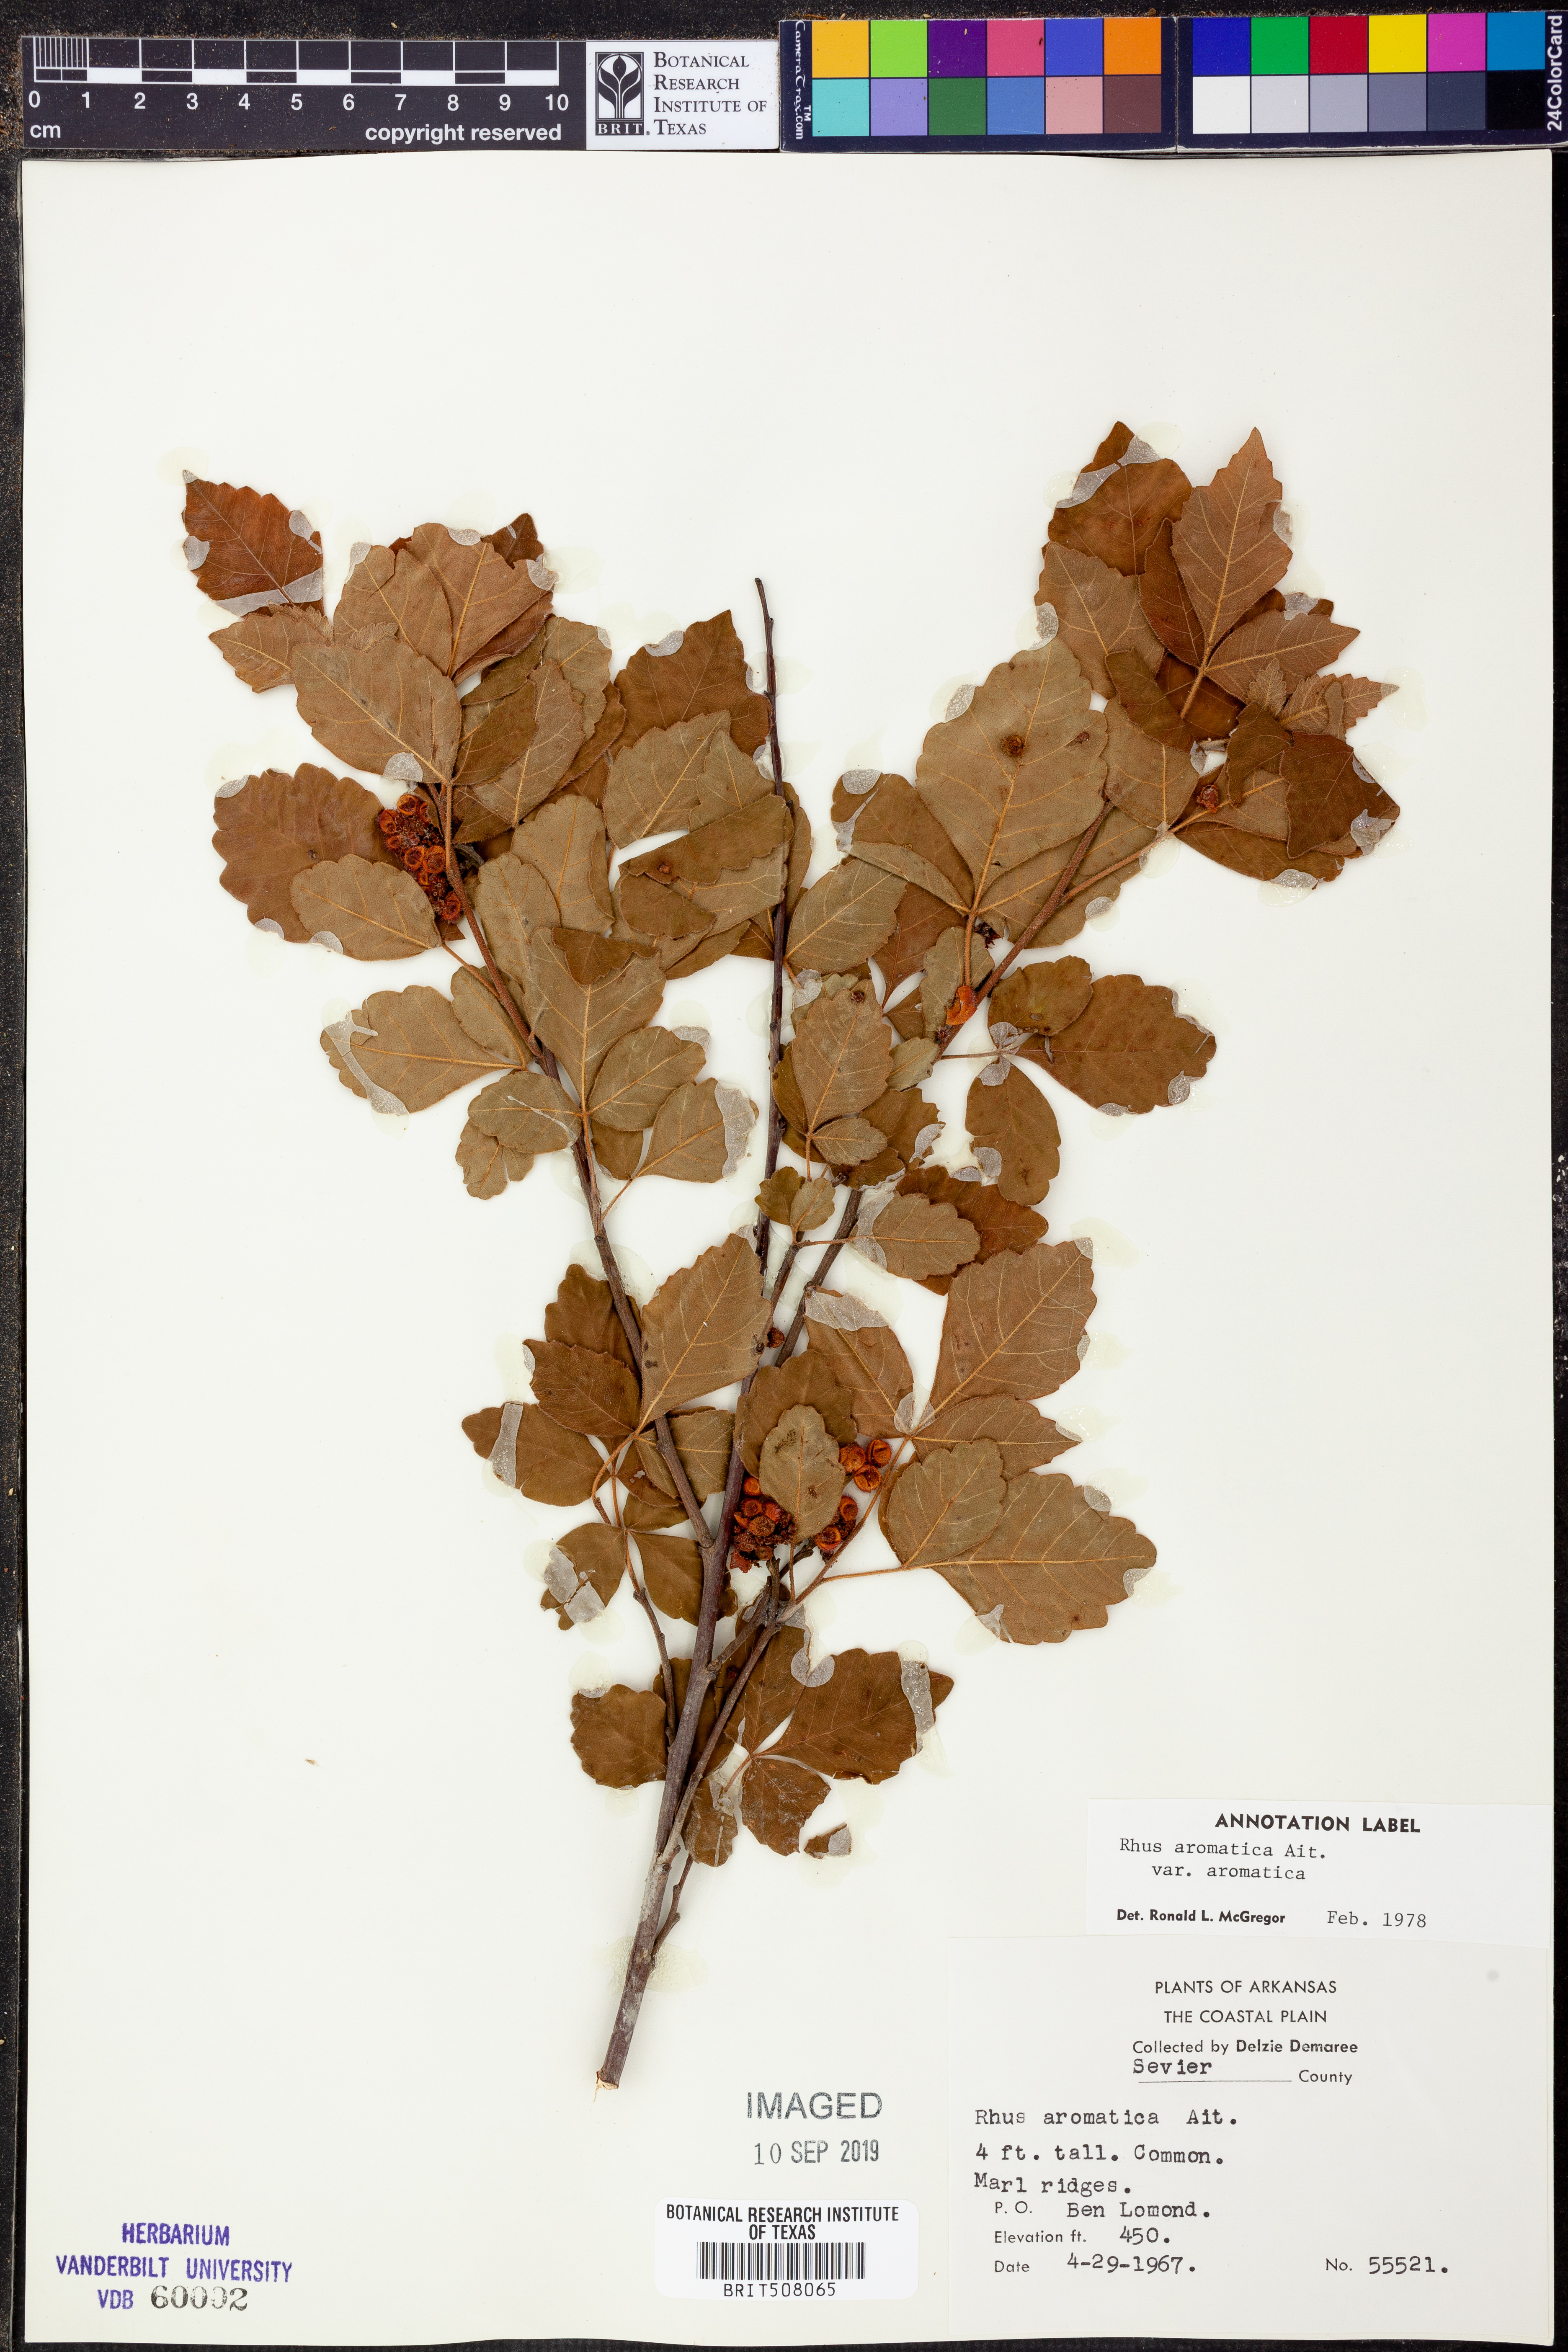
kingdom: Plantae
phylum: Tracheophyta
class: Magnoliopsida
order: Sapindales
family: Anacardiaceae
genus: Rhus
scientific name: Rhus aromatica
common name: Aromatic sumac
